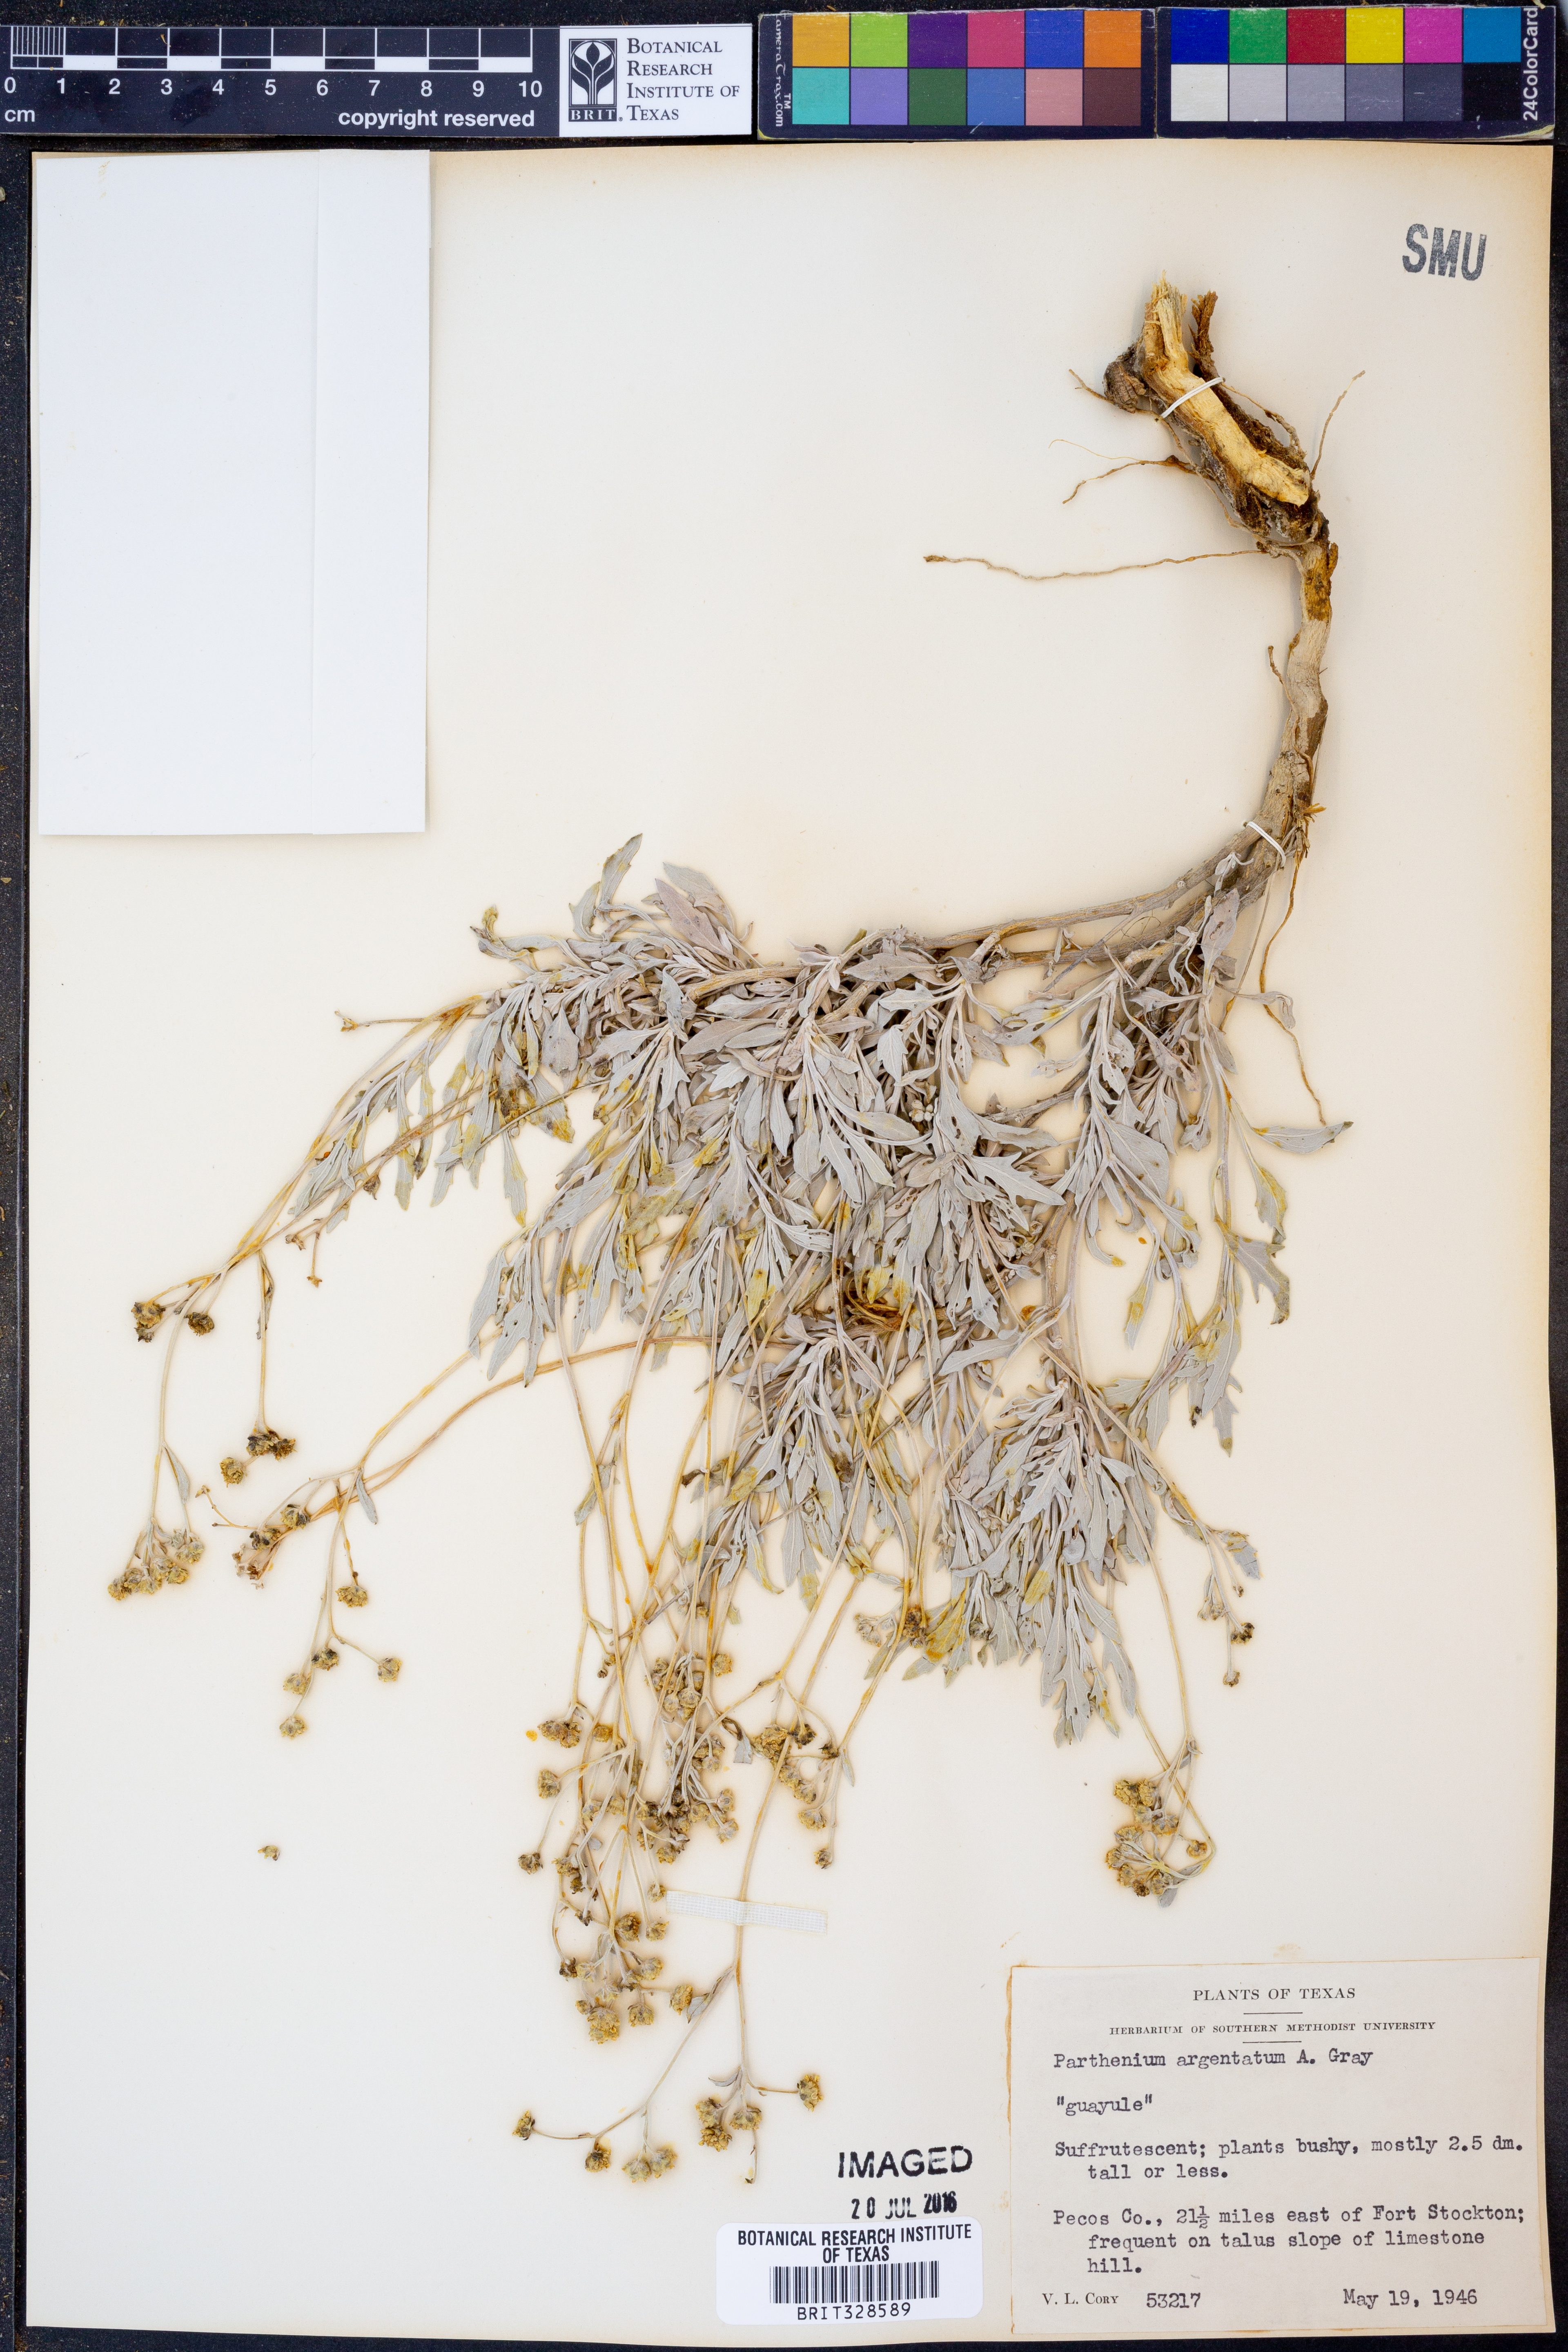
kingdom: Plantae
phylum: Tracheophyta
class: Magnoliopsida
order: Asterales
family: Asteraceae
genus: Parthenium
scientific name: Parthenium argentatum
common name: Guayule
